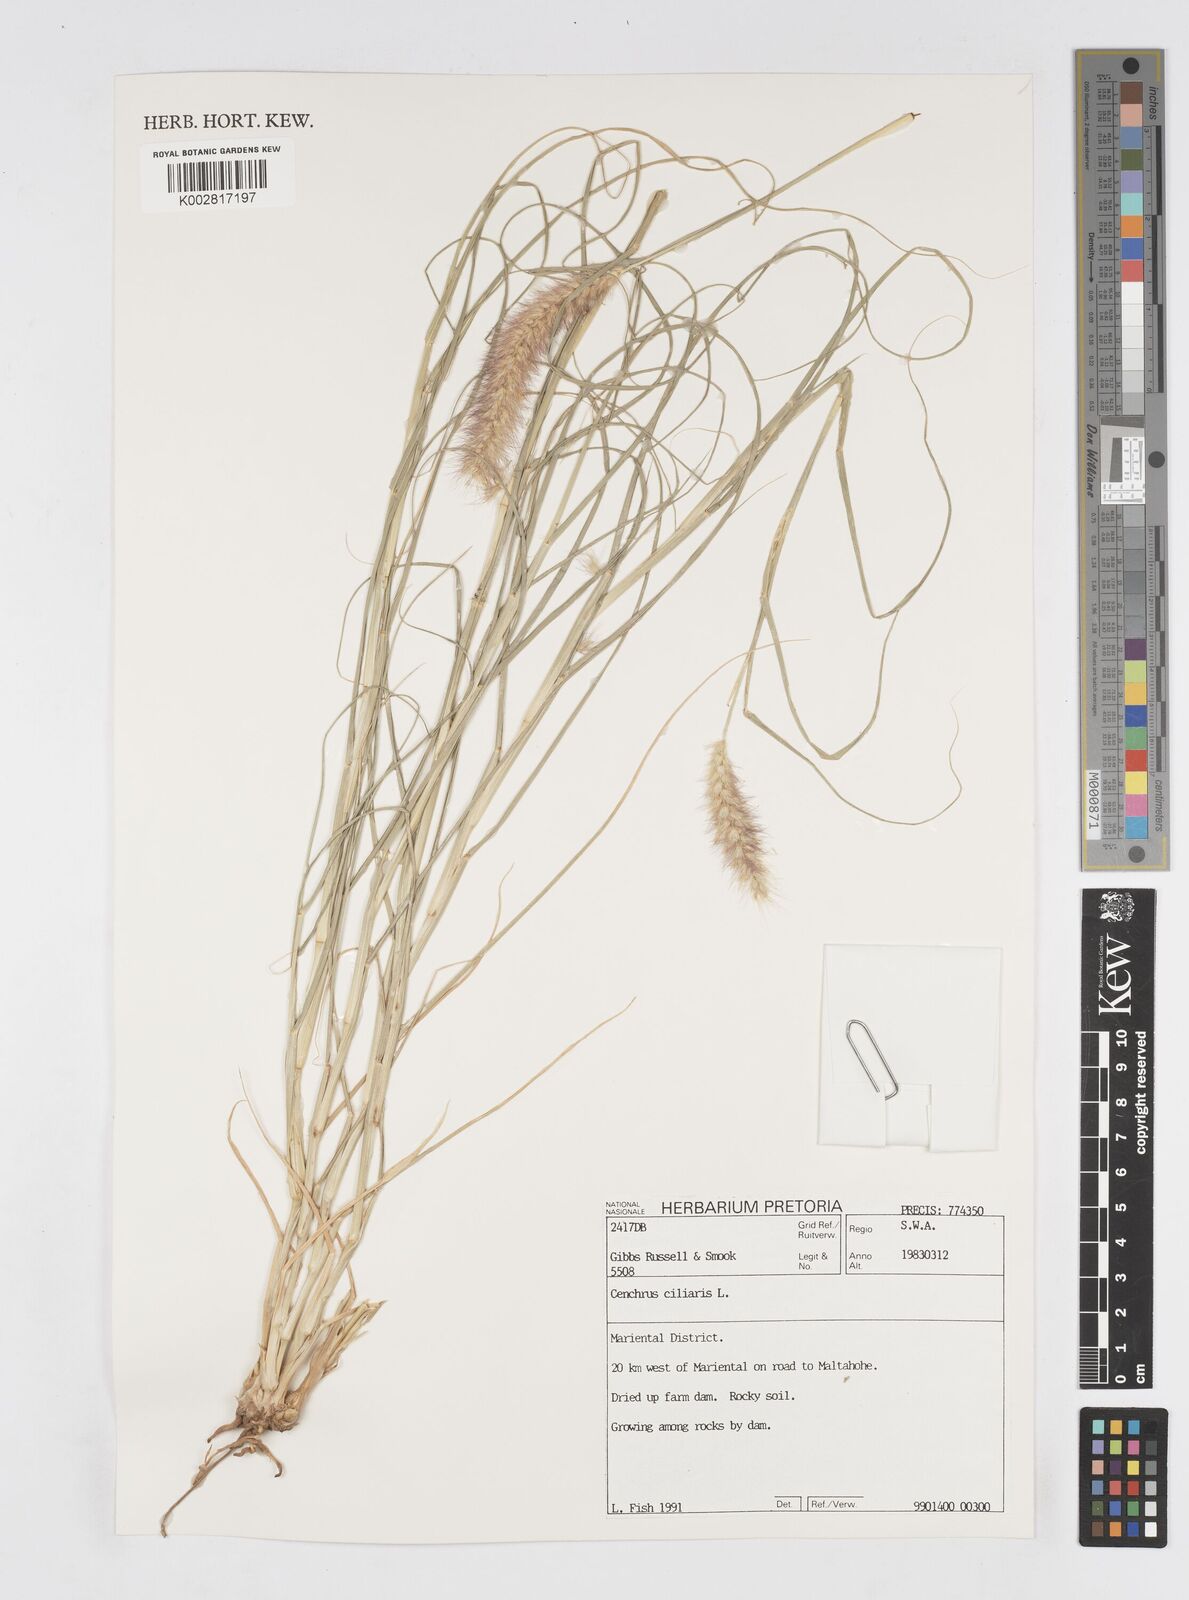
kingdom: Plantae
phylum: Tracheophyta
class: Liliopsida
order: Poales
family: Poaceae
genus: Cenchrus
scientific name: Cenchrus ciliaris
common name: Buffelgrass
